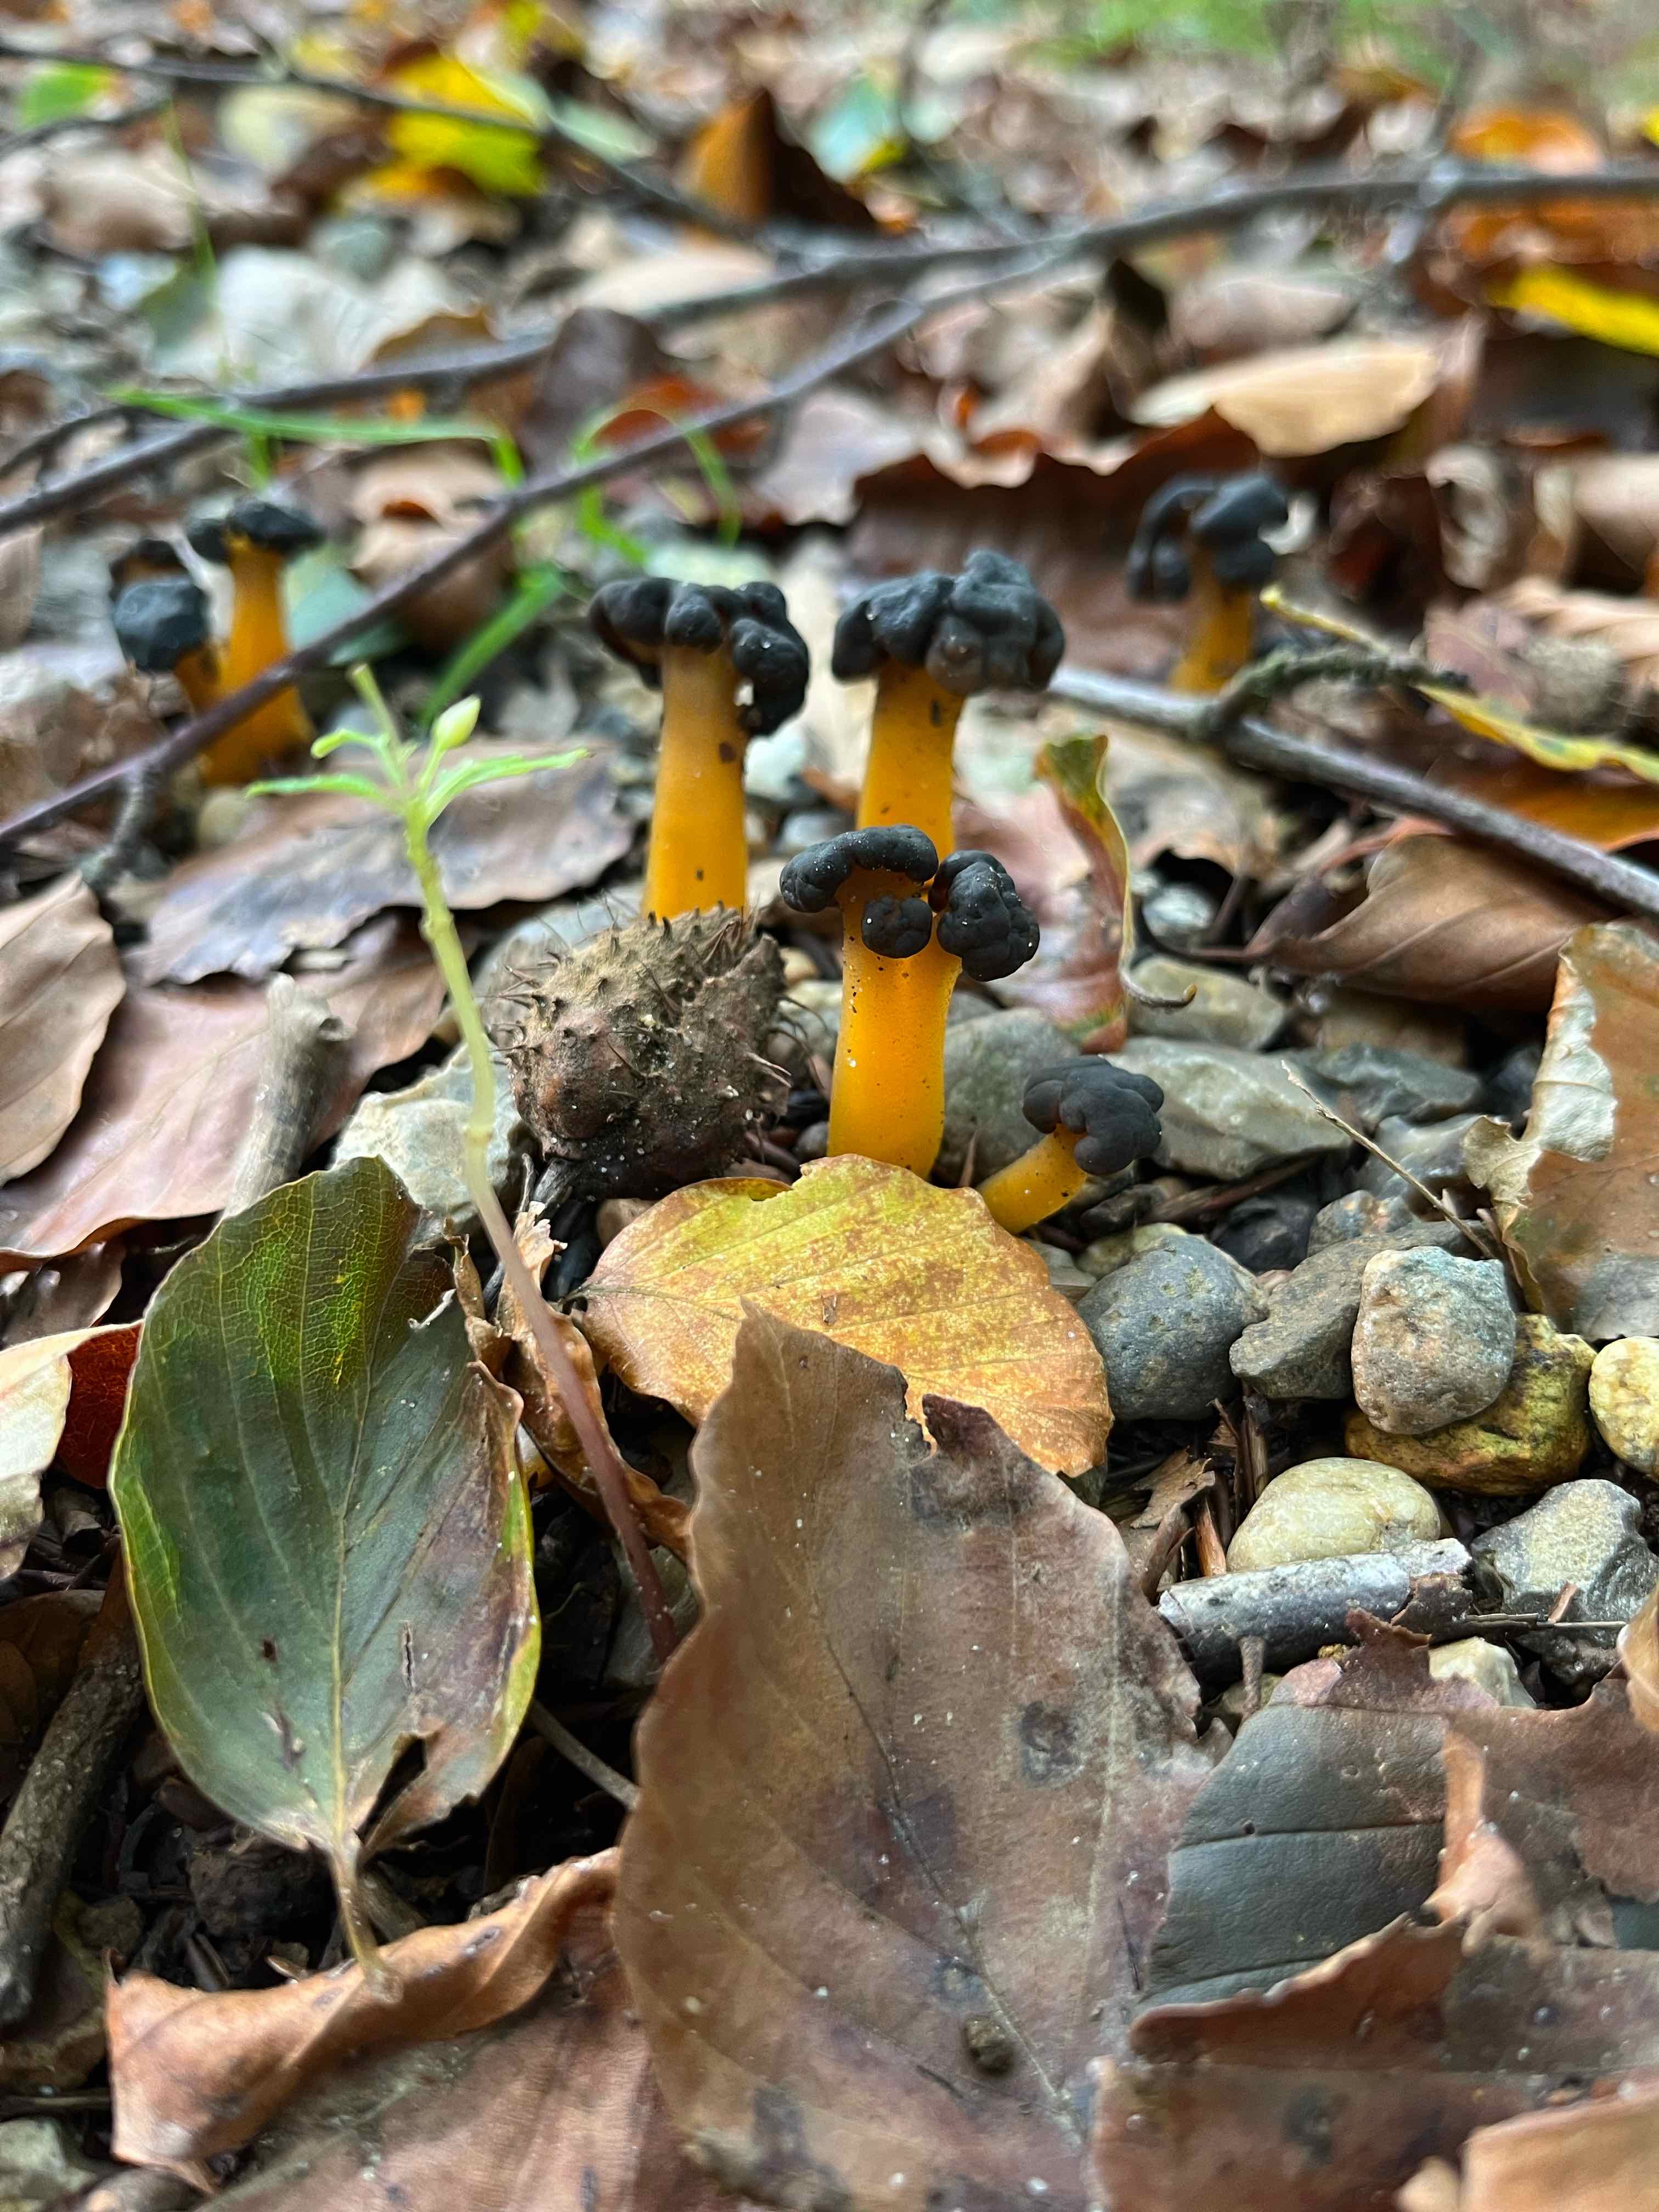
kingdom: Fungi
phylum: Ascomycota
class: Leotiomycetes
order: Leotiales
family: Leotiaceae
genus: Leotia
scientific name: Leotia lubrica
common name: ravsvamp
